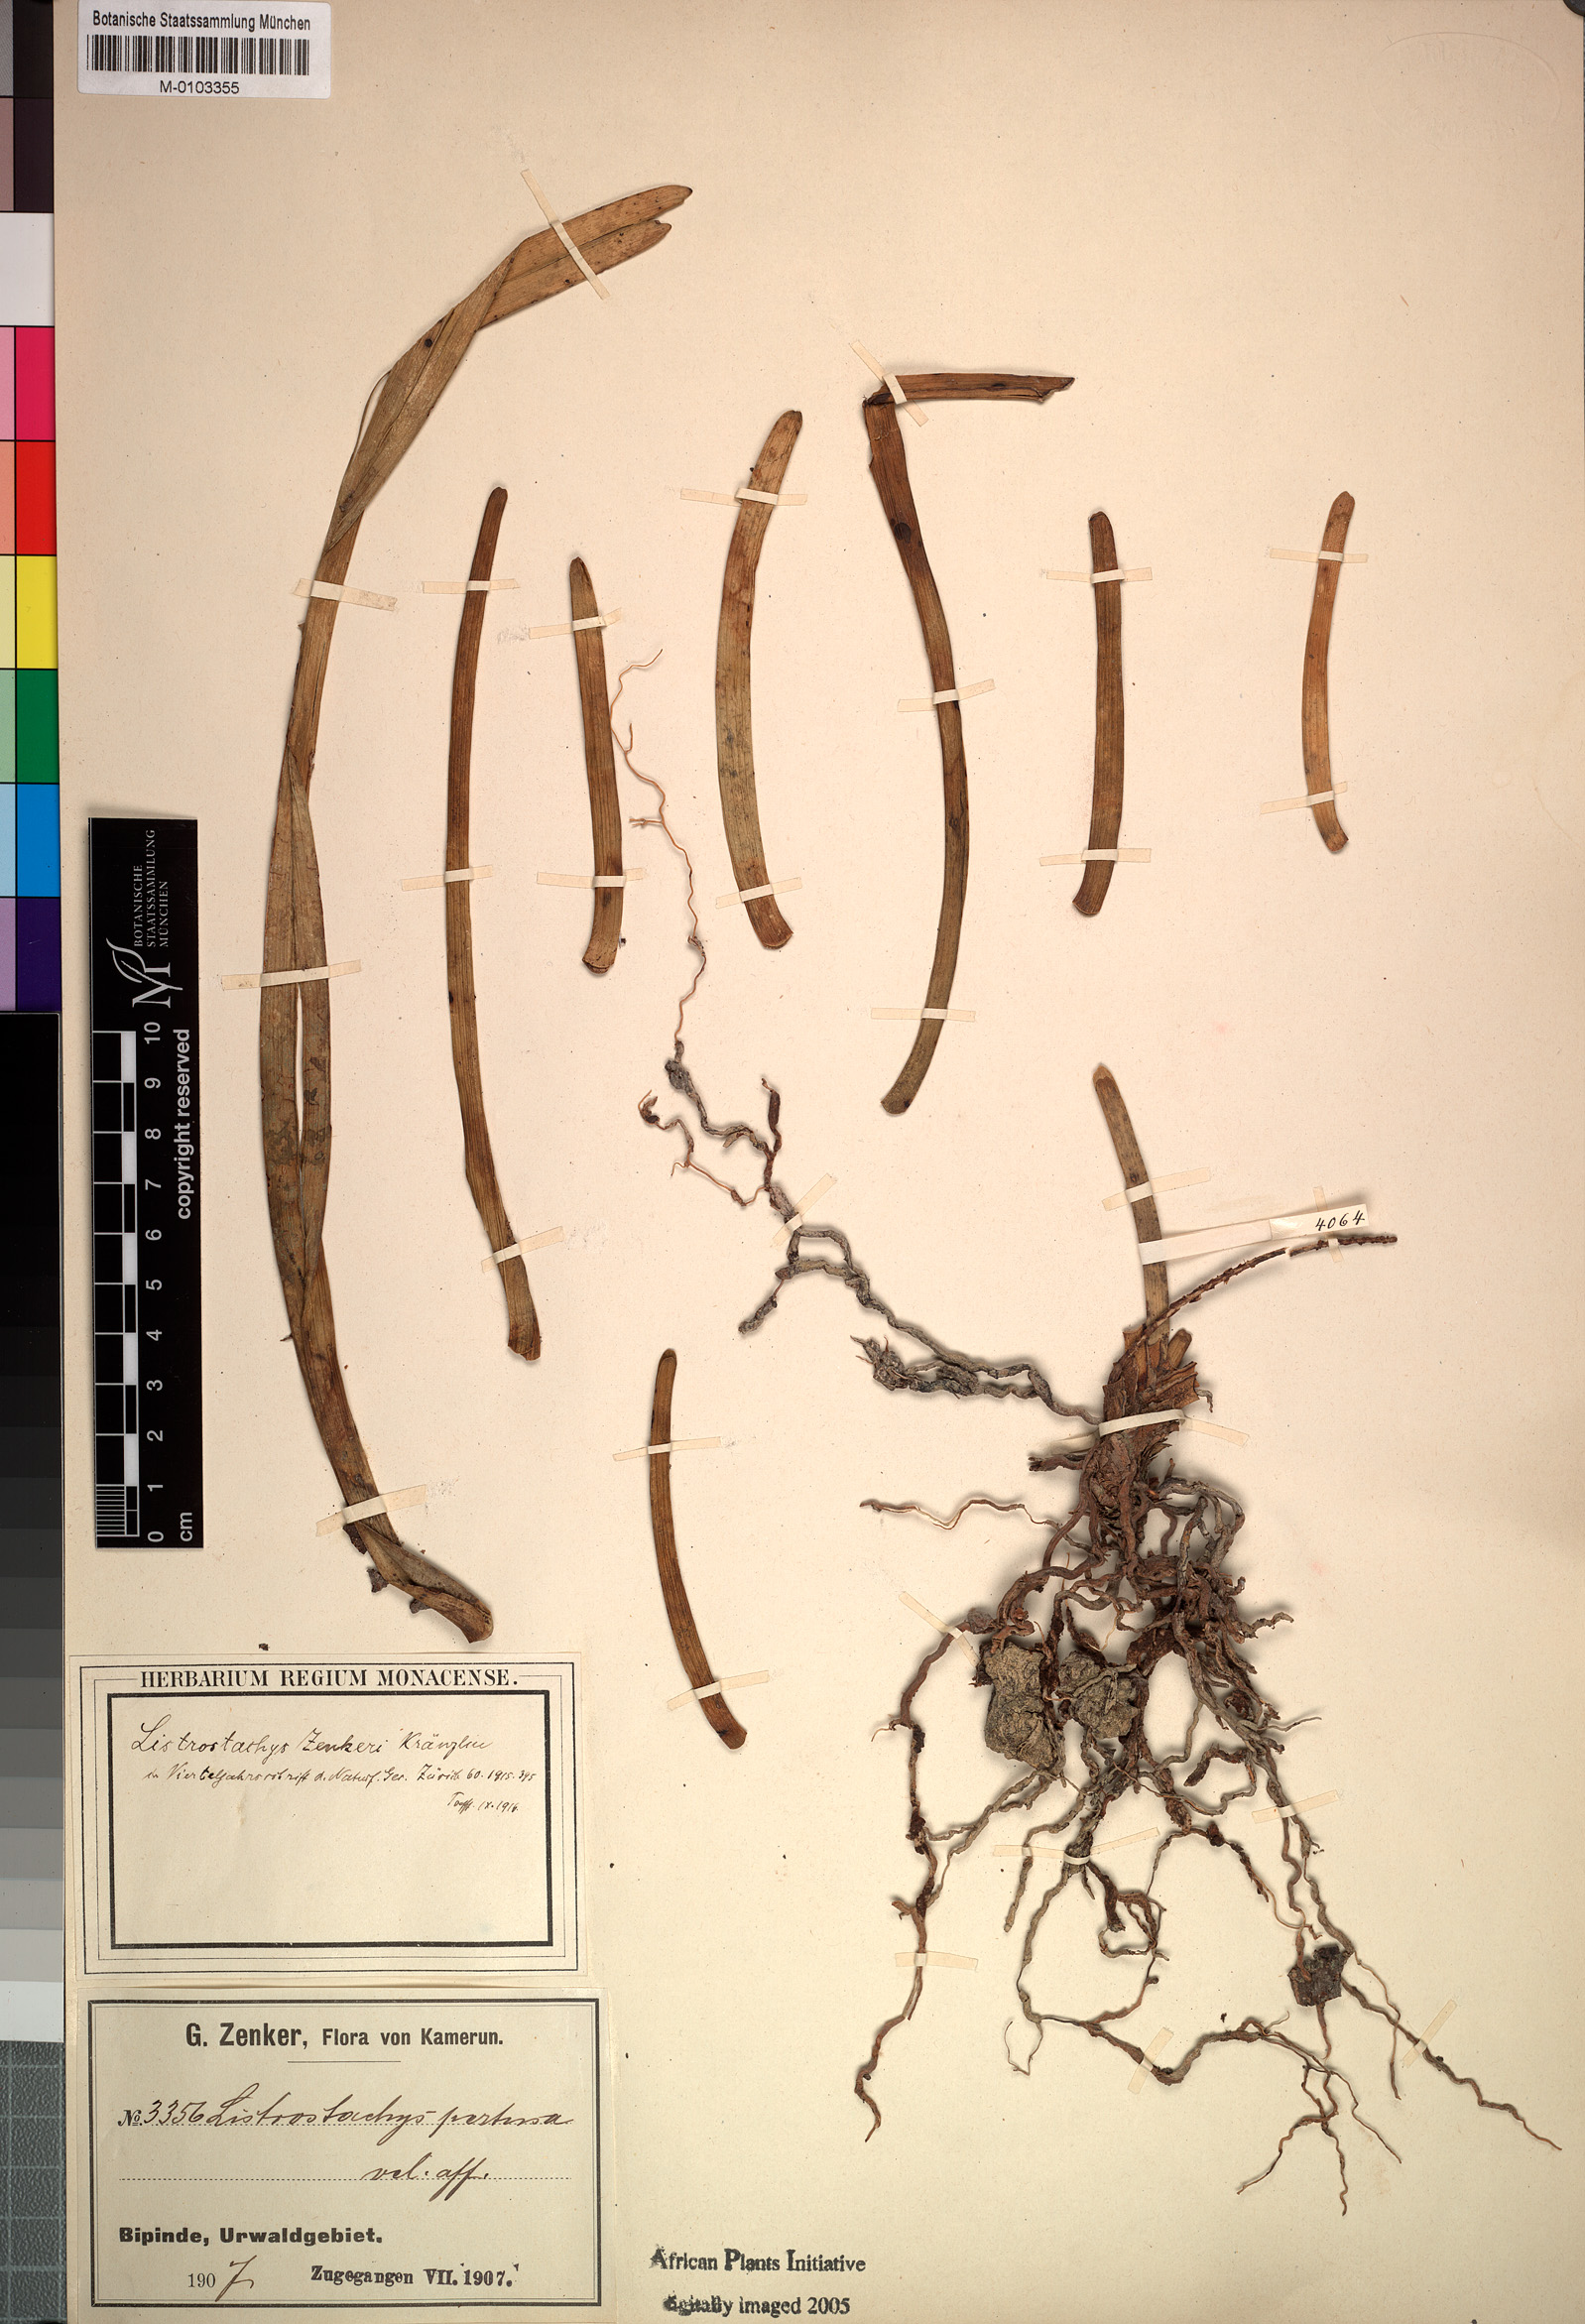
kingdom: Plantae
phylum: Tracheophyta
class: Liliopsida
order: Asparagales
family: Orchidaceae
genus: Listrostachys
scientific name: Listrostachys pertusa
